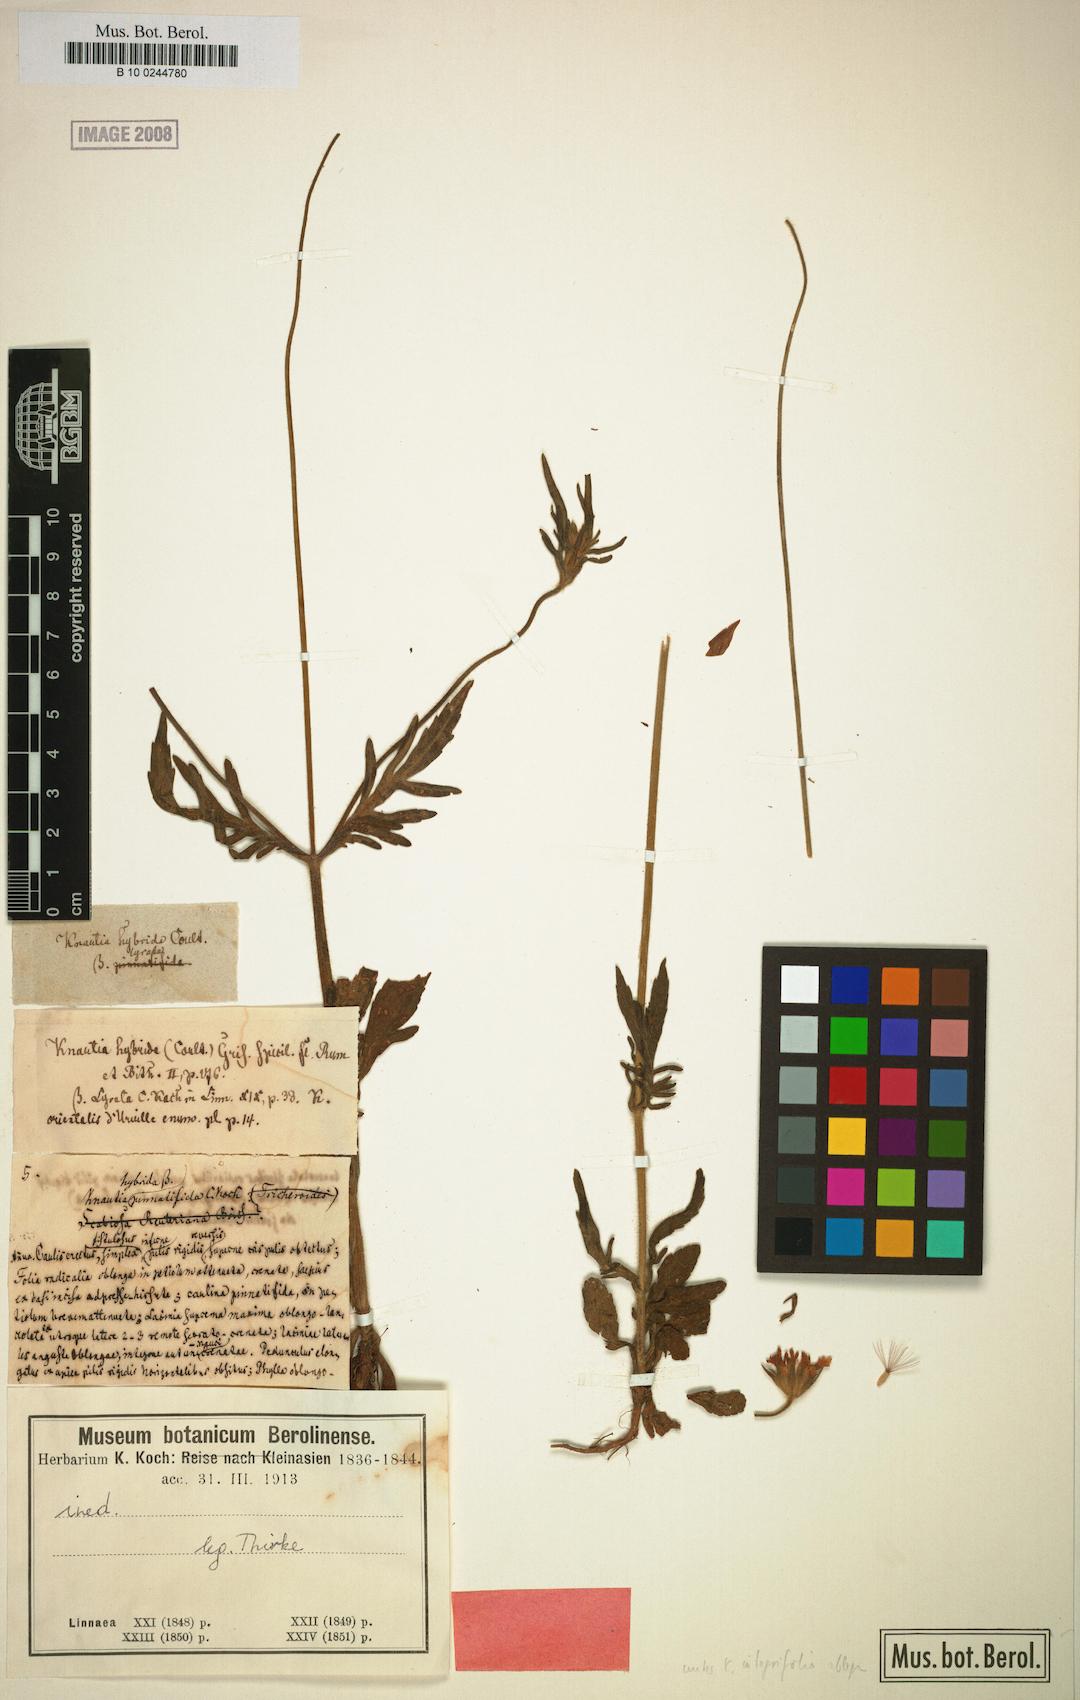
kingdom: Plantae
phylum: Tracheophyta
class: Magnoliopsida
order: Dipsacales
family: Caprifoliaceae
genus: Knautia
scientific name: Knautia integrifolia
